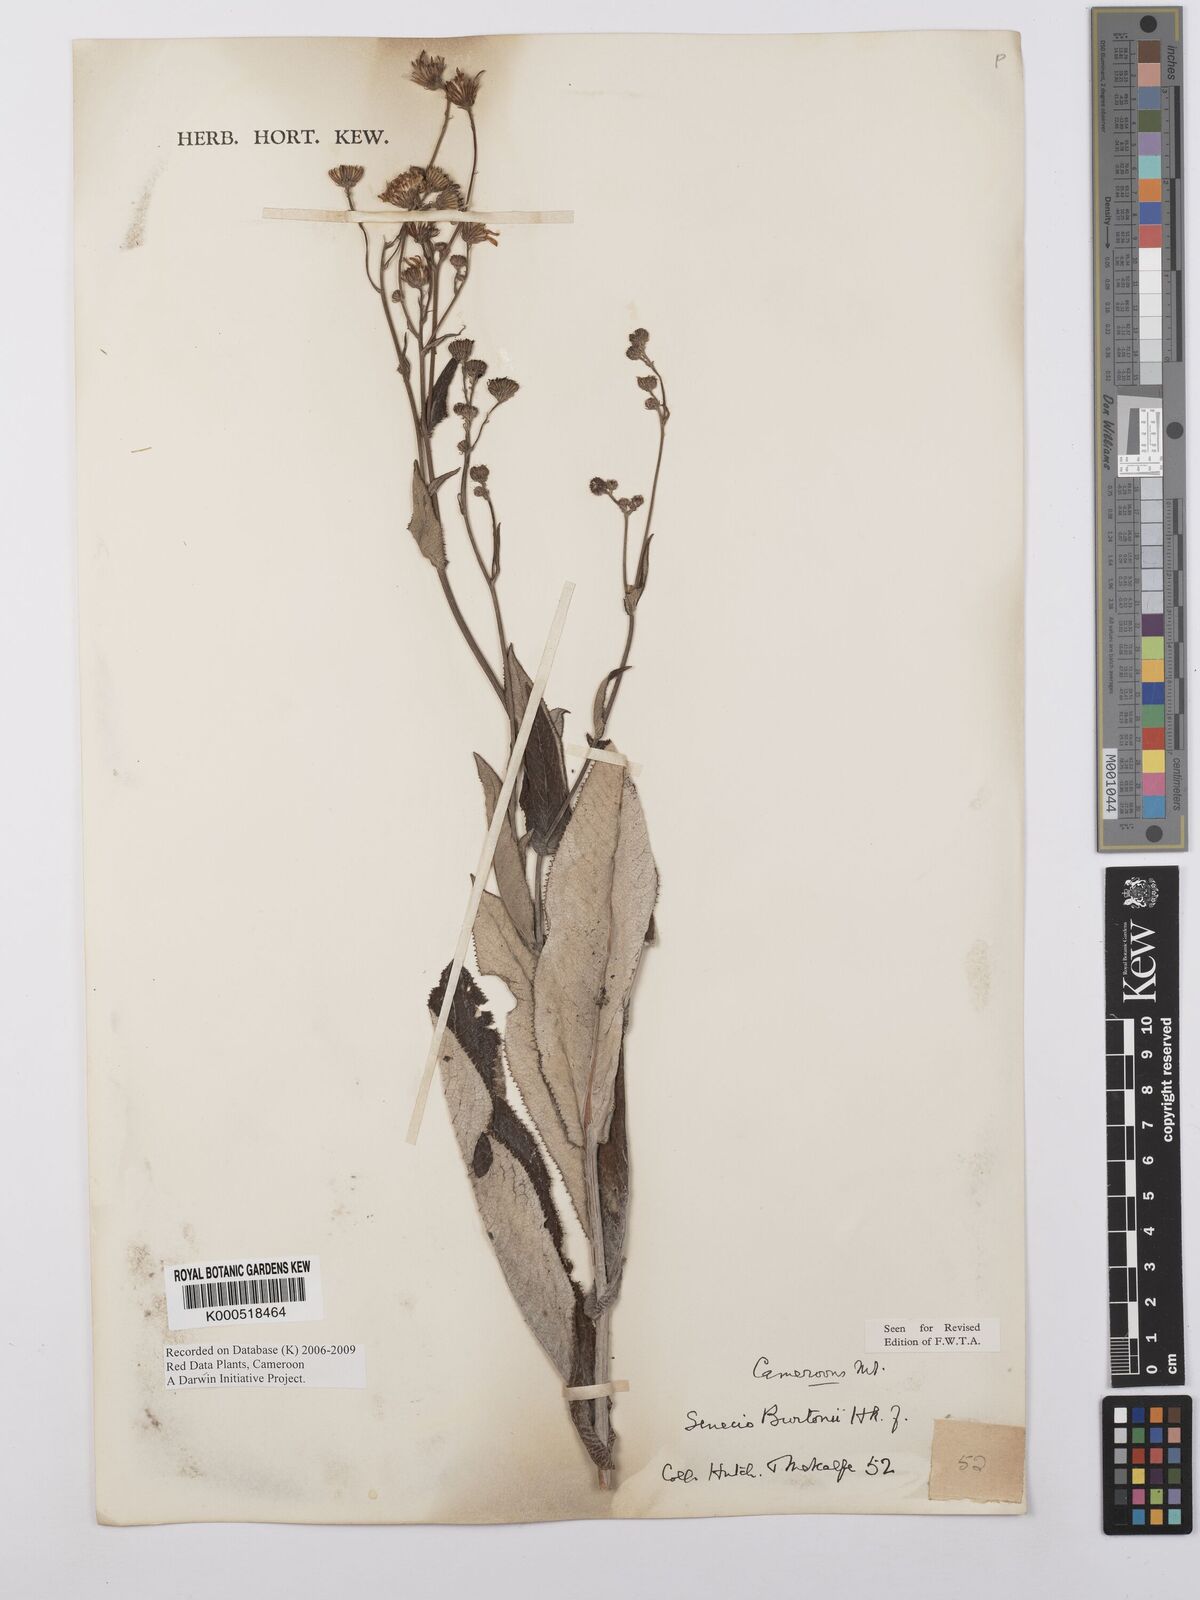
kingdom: Plantae
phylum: Tracheophyta
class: Magnoliopsida
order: Asterales
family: Asteraceae
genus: Senecio
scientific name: Senecio burtonii
